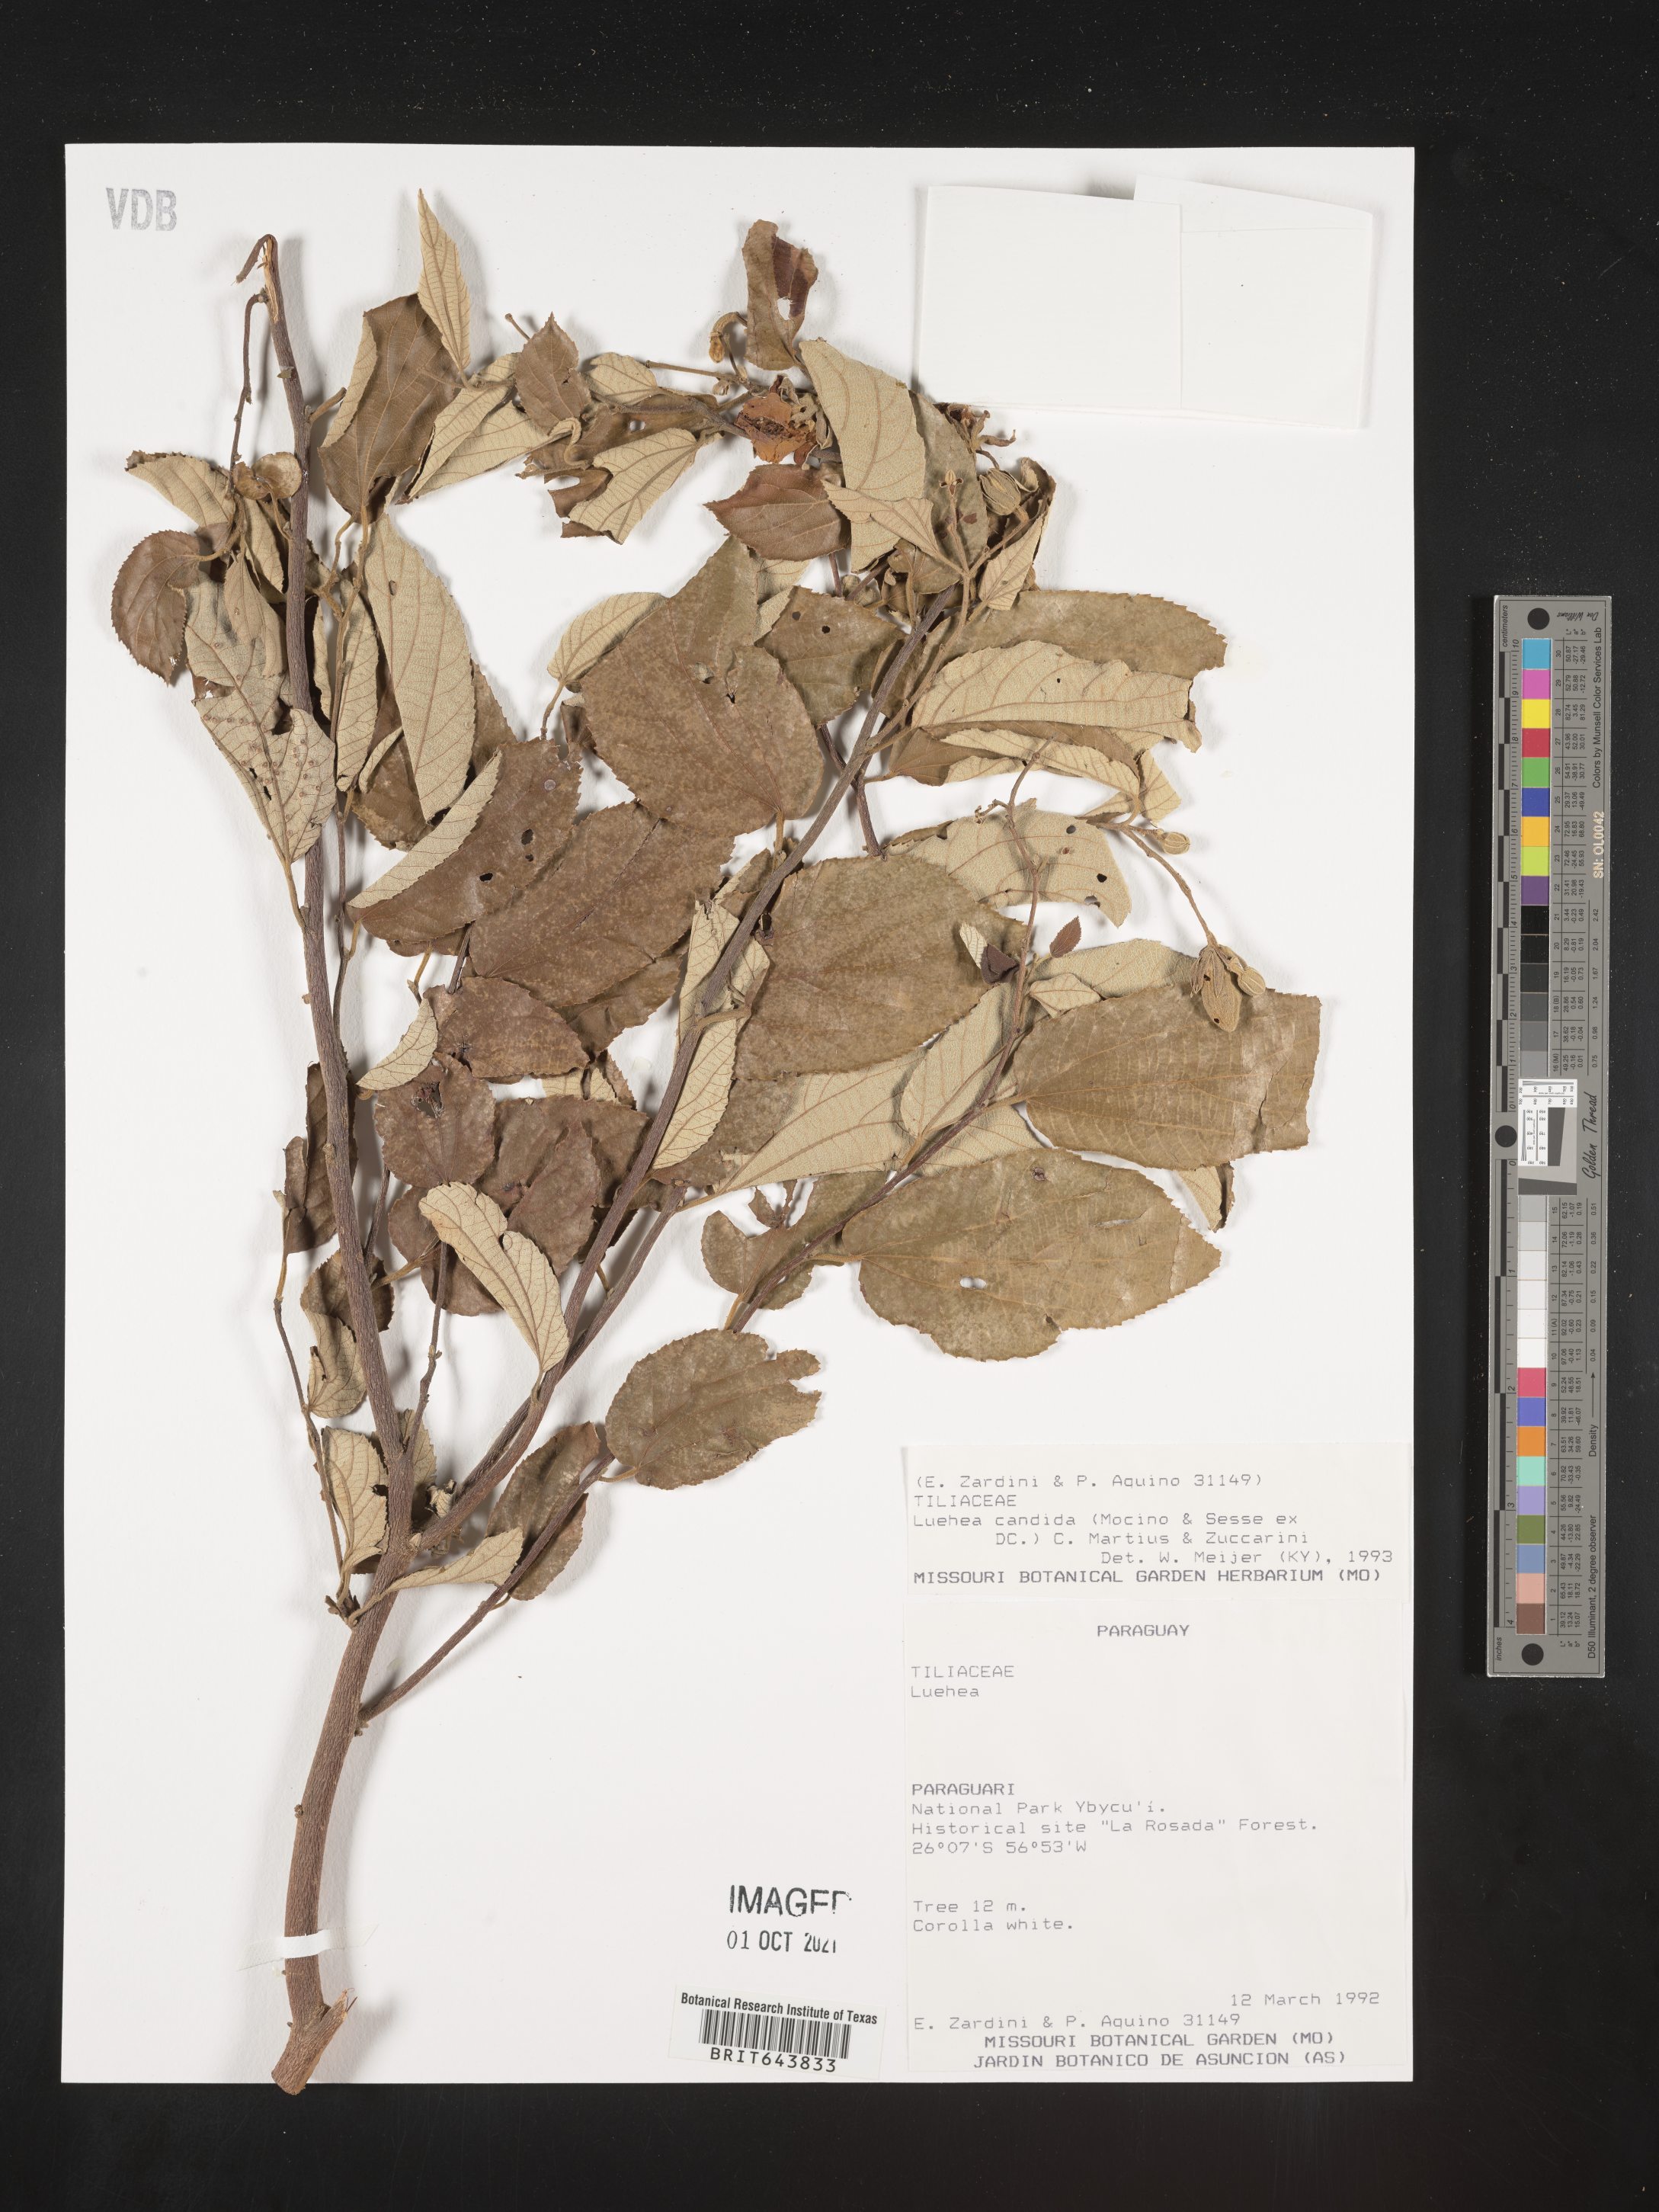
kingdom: Plantae
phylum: Tracheophyta
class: Magnoliopsida
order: Malvales
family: Malvaceae
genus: Luehea
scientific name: Luehea
